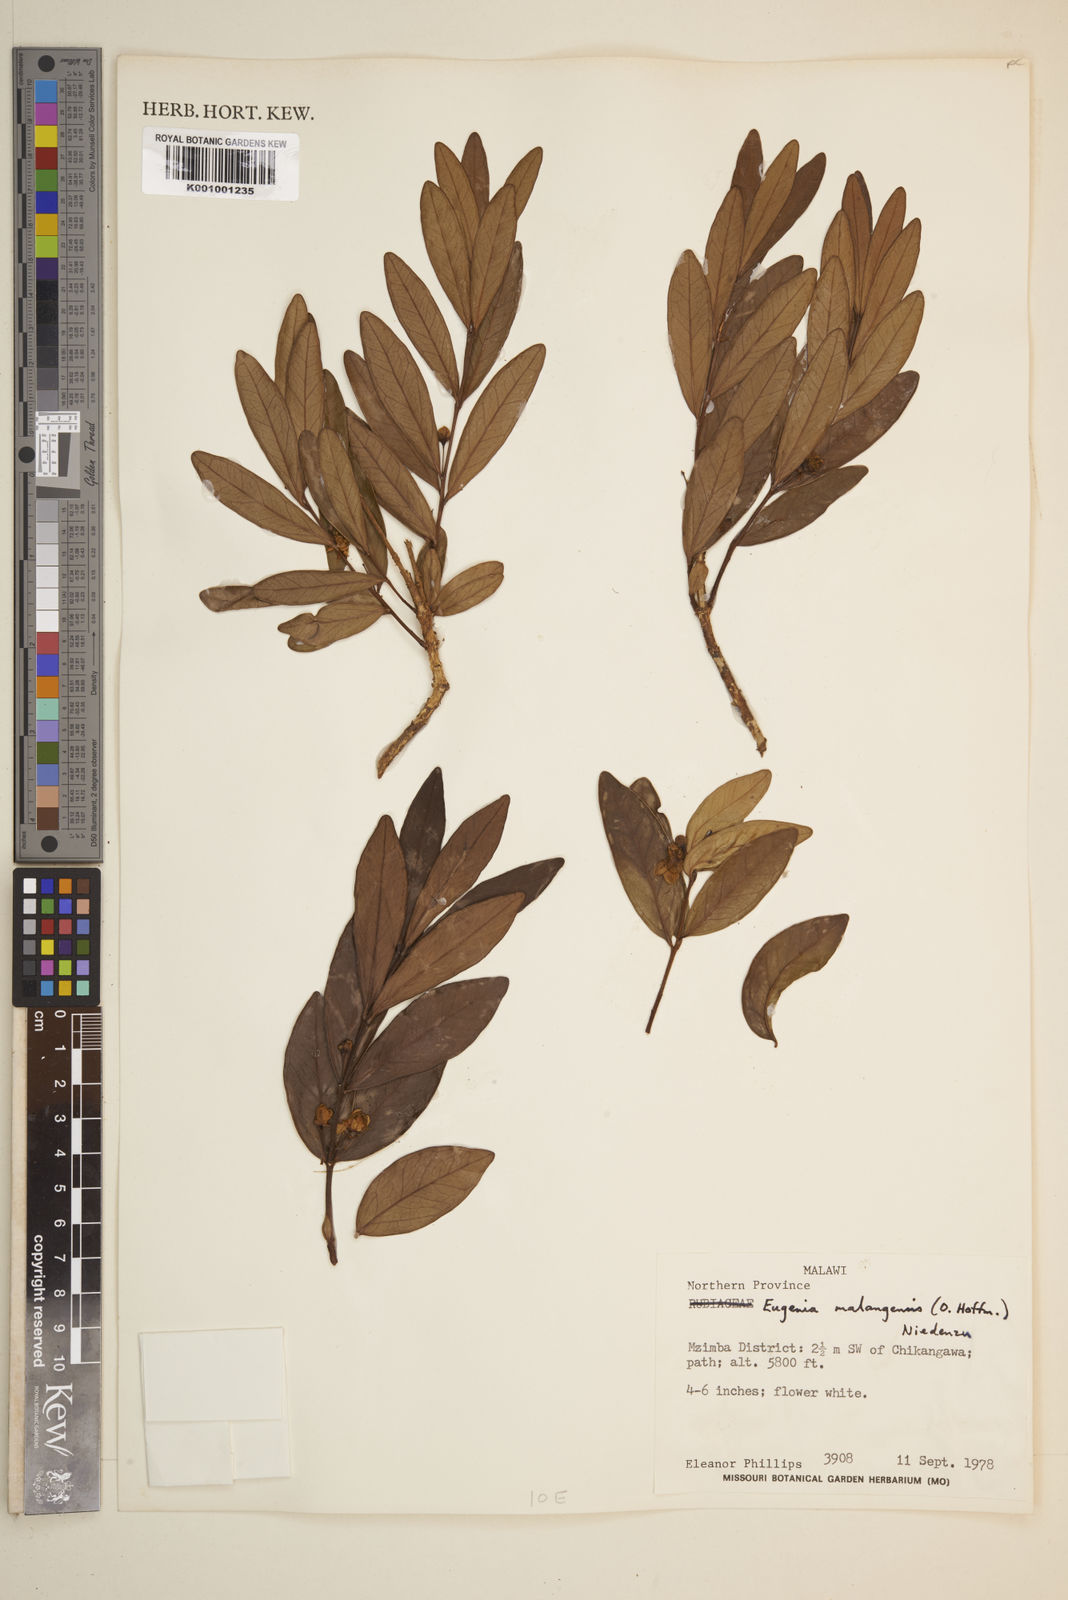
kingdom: Plantae
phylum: Tracheophyta
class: Magnoliopsida
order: Myrtales
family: Myrtaceae
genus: Eugenia
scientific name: Eugenia malangensis
